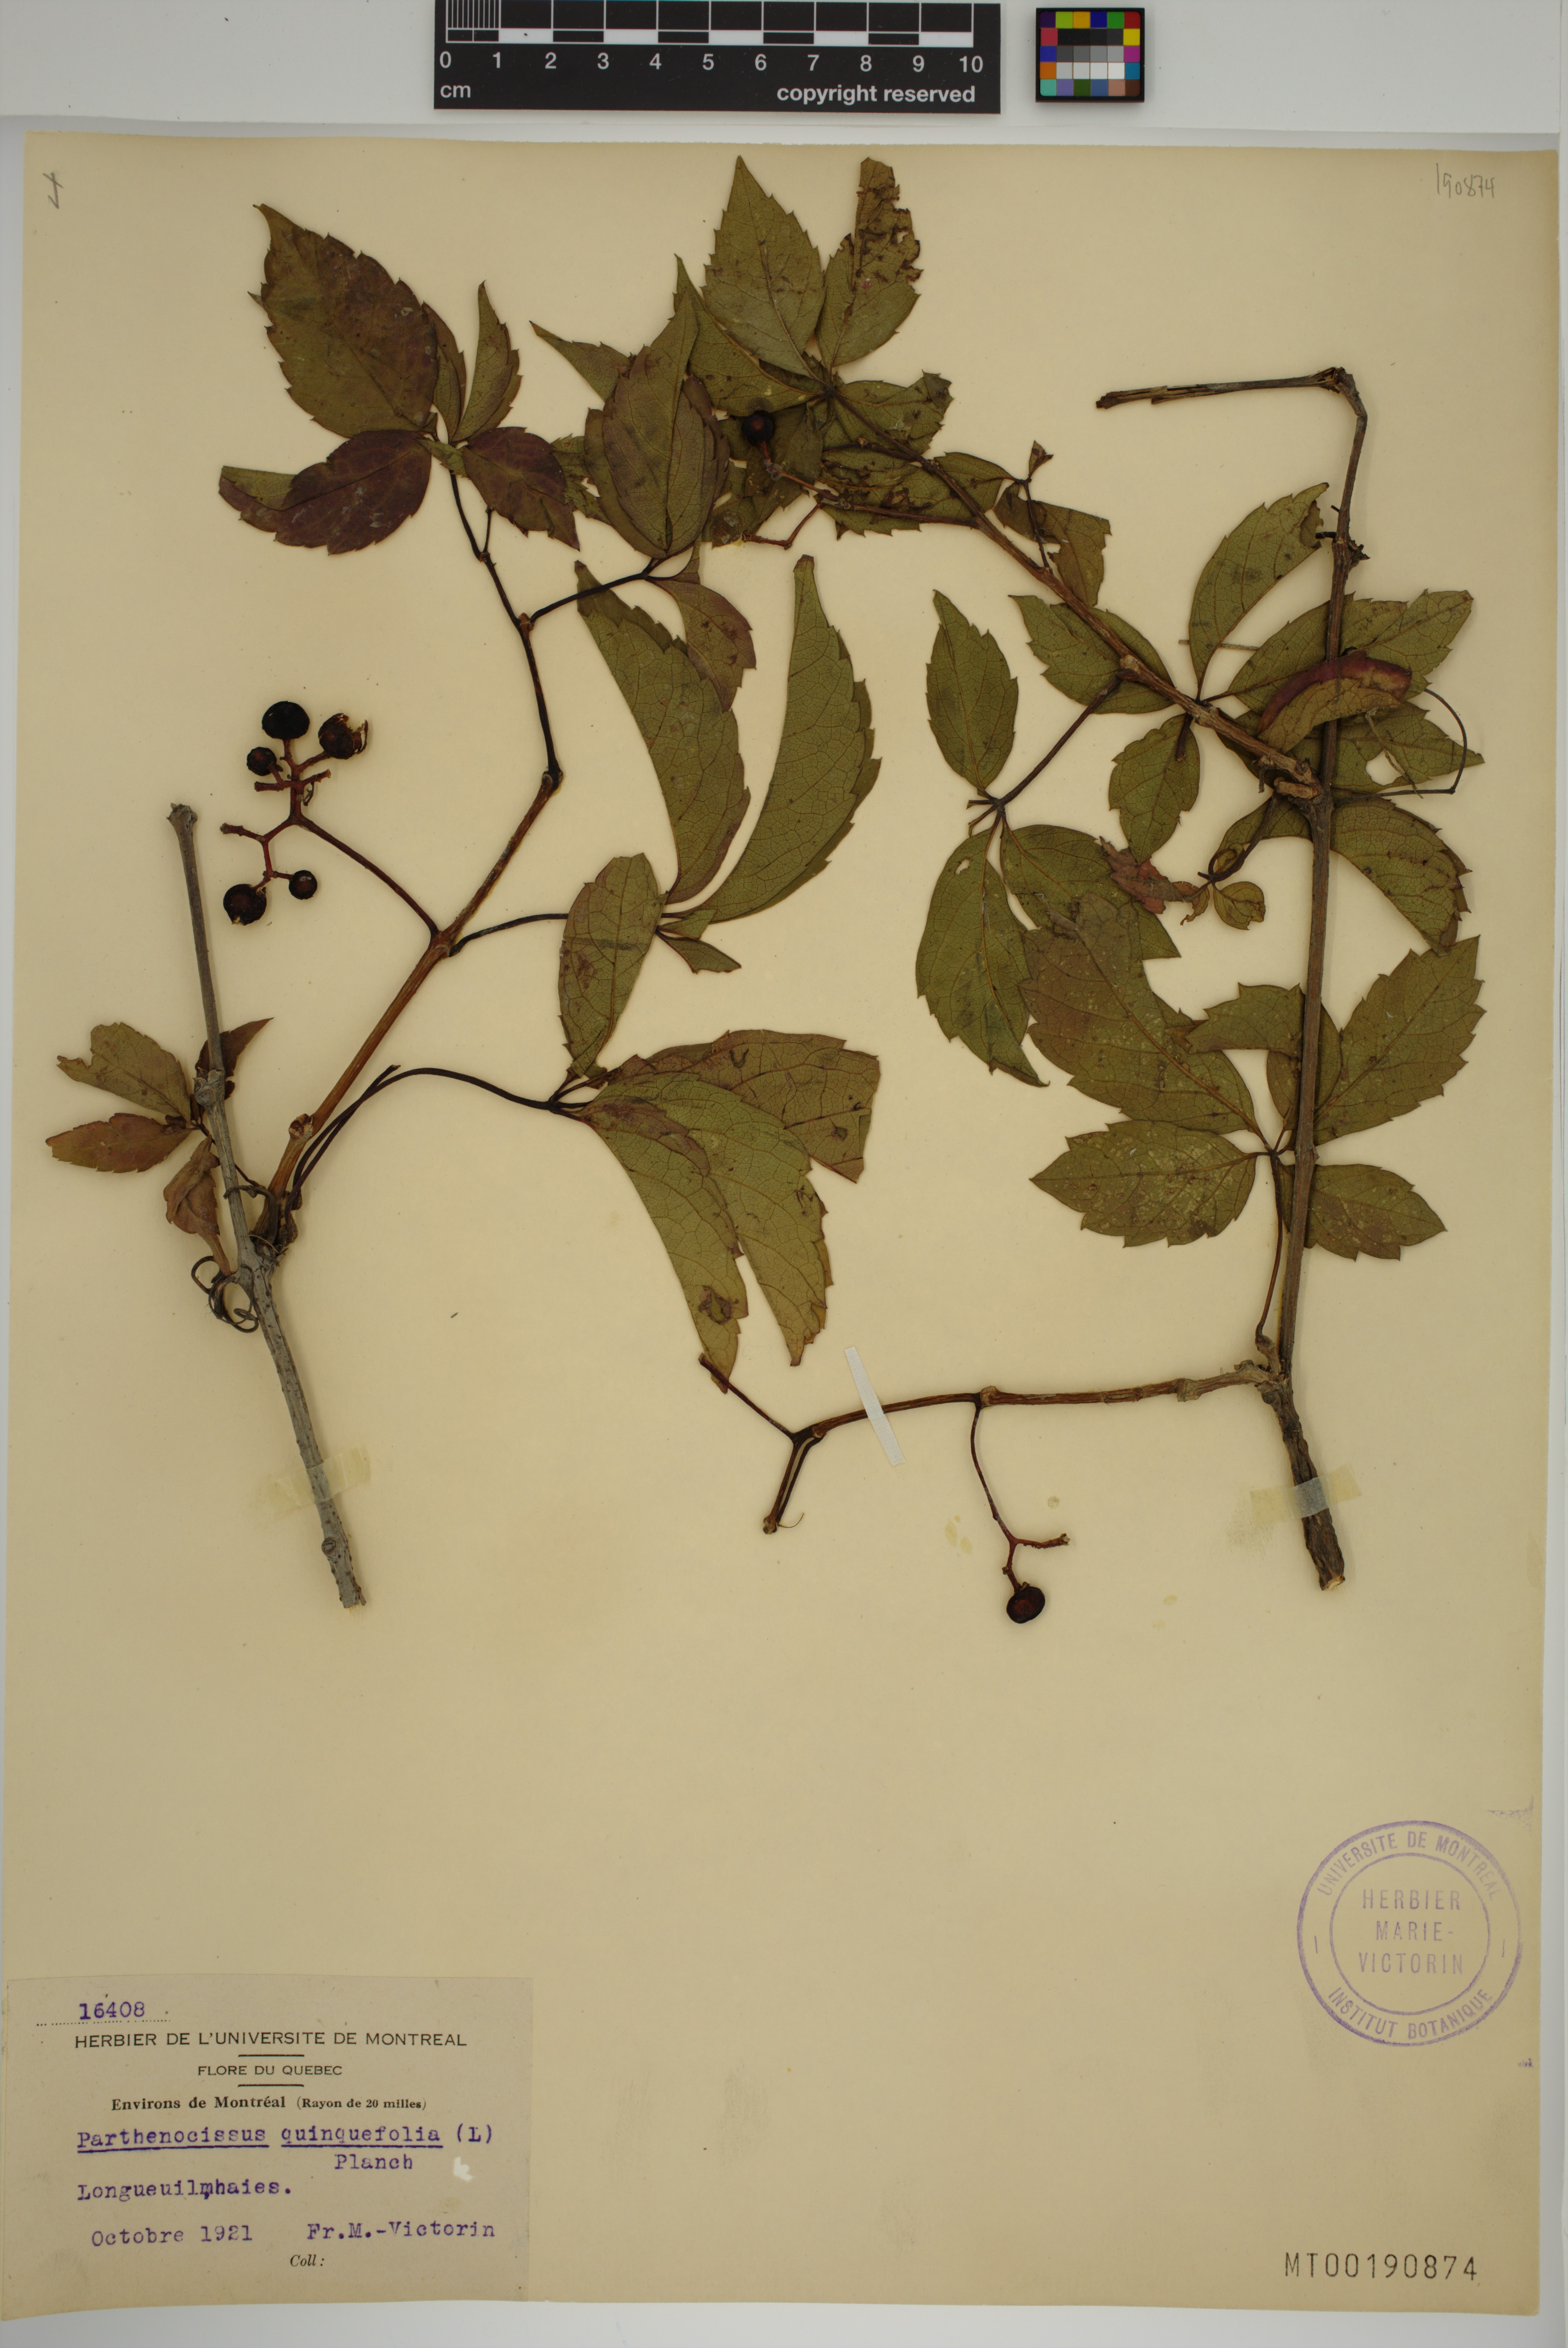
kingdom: Plantae
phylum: Tracheophyta
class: Magnoliopsida
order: Vitales
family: Vitaceae
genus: Parthenocissus
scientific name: Parthenocissus quinquefolia
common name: Virginia-creeper
